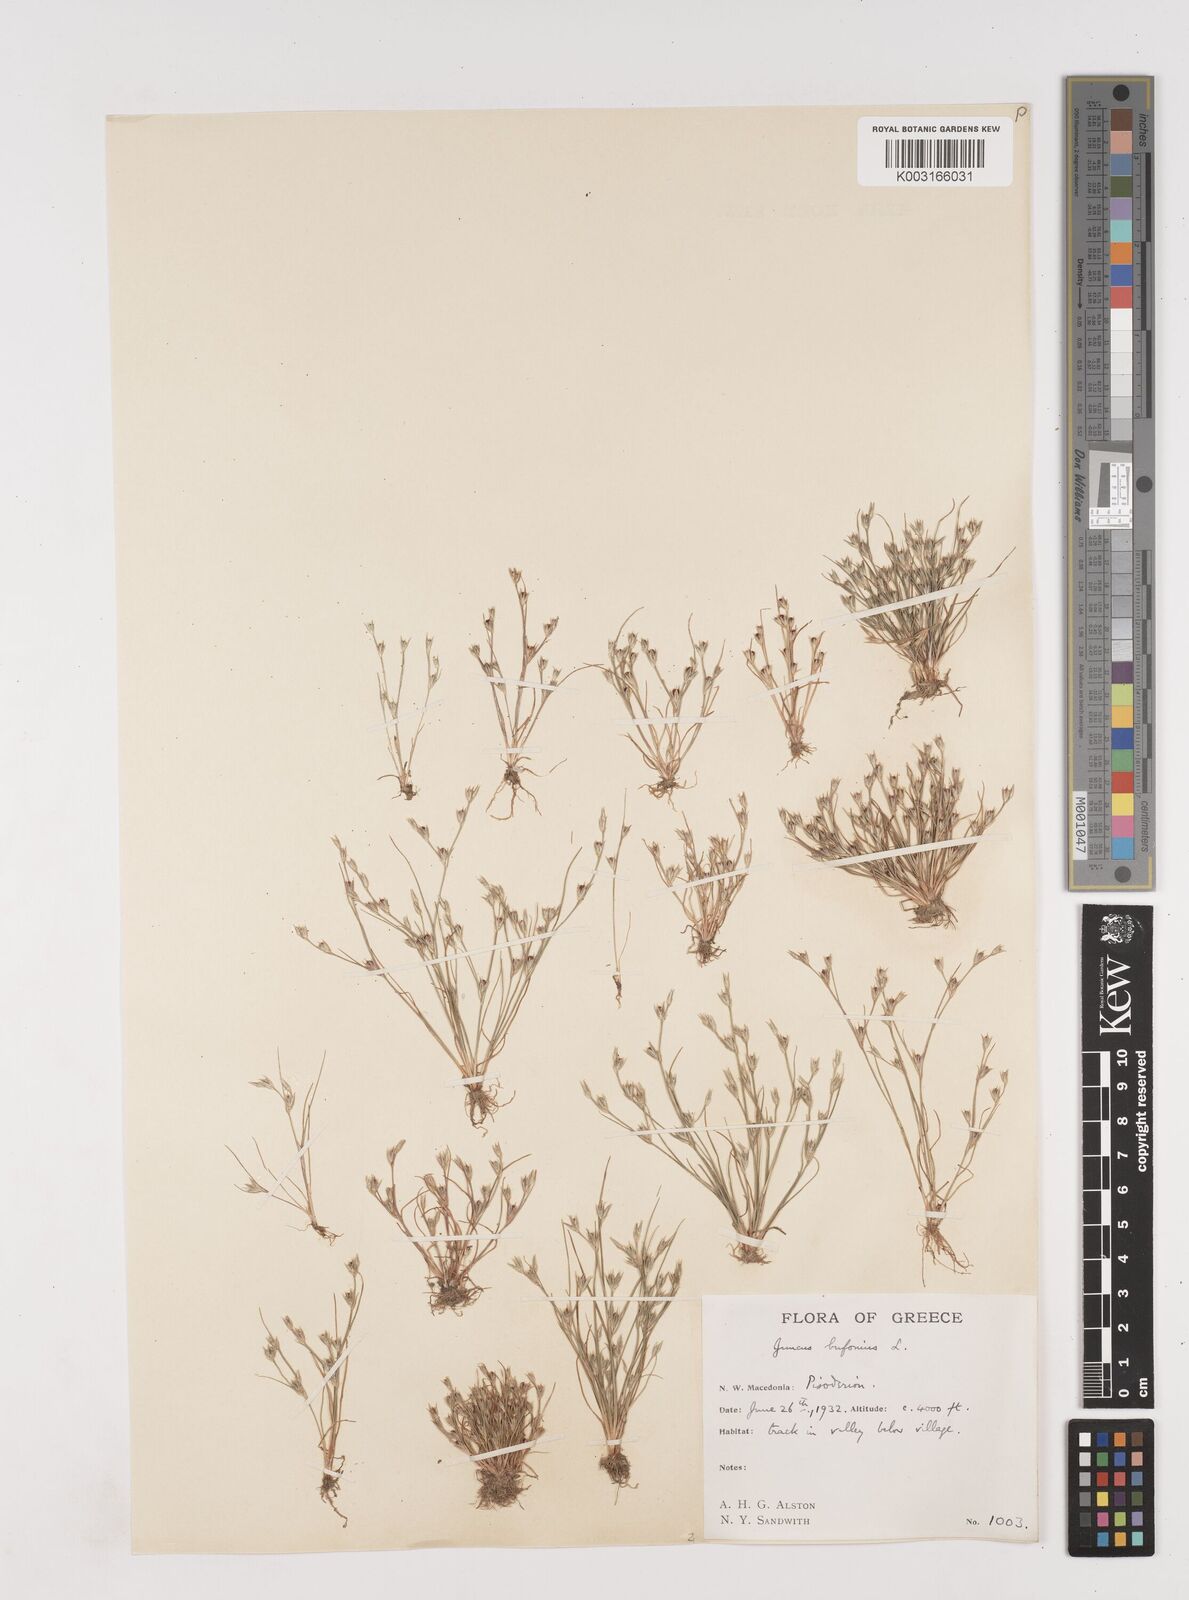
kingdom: Plantae
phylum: Tracheophyta
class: Liliopsida
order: Poales
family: Juncaceae
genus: Juncus
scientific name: Juncus bufonius
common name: Toad rush
